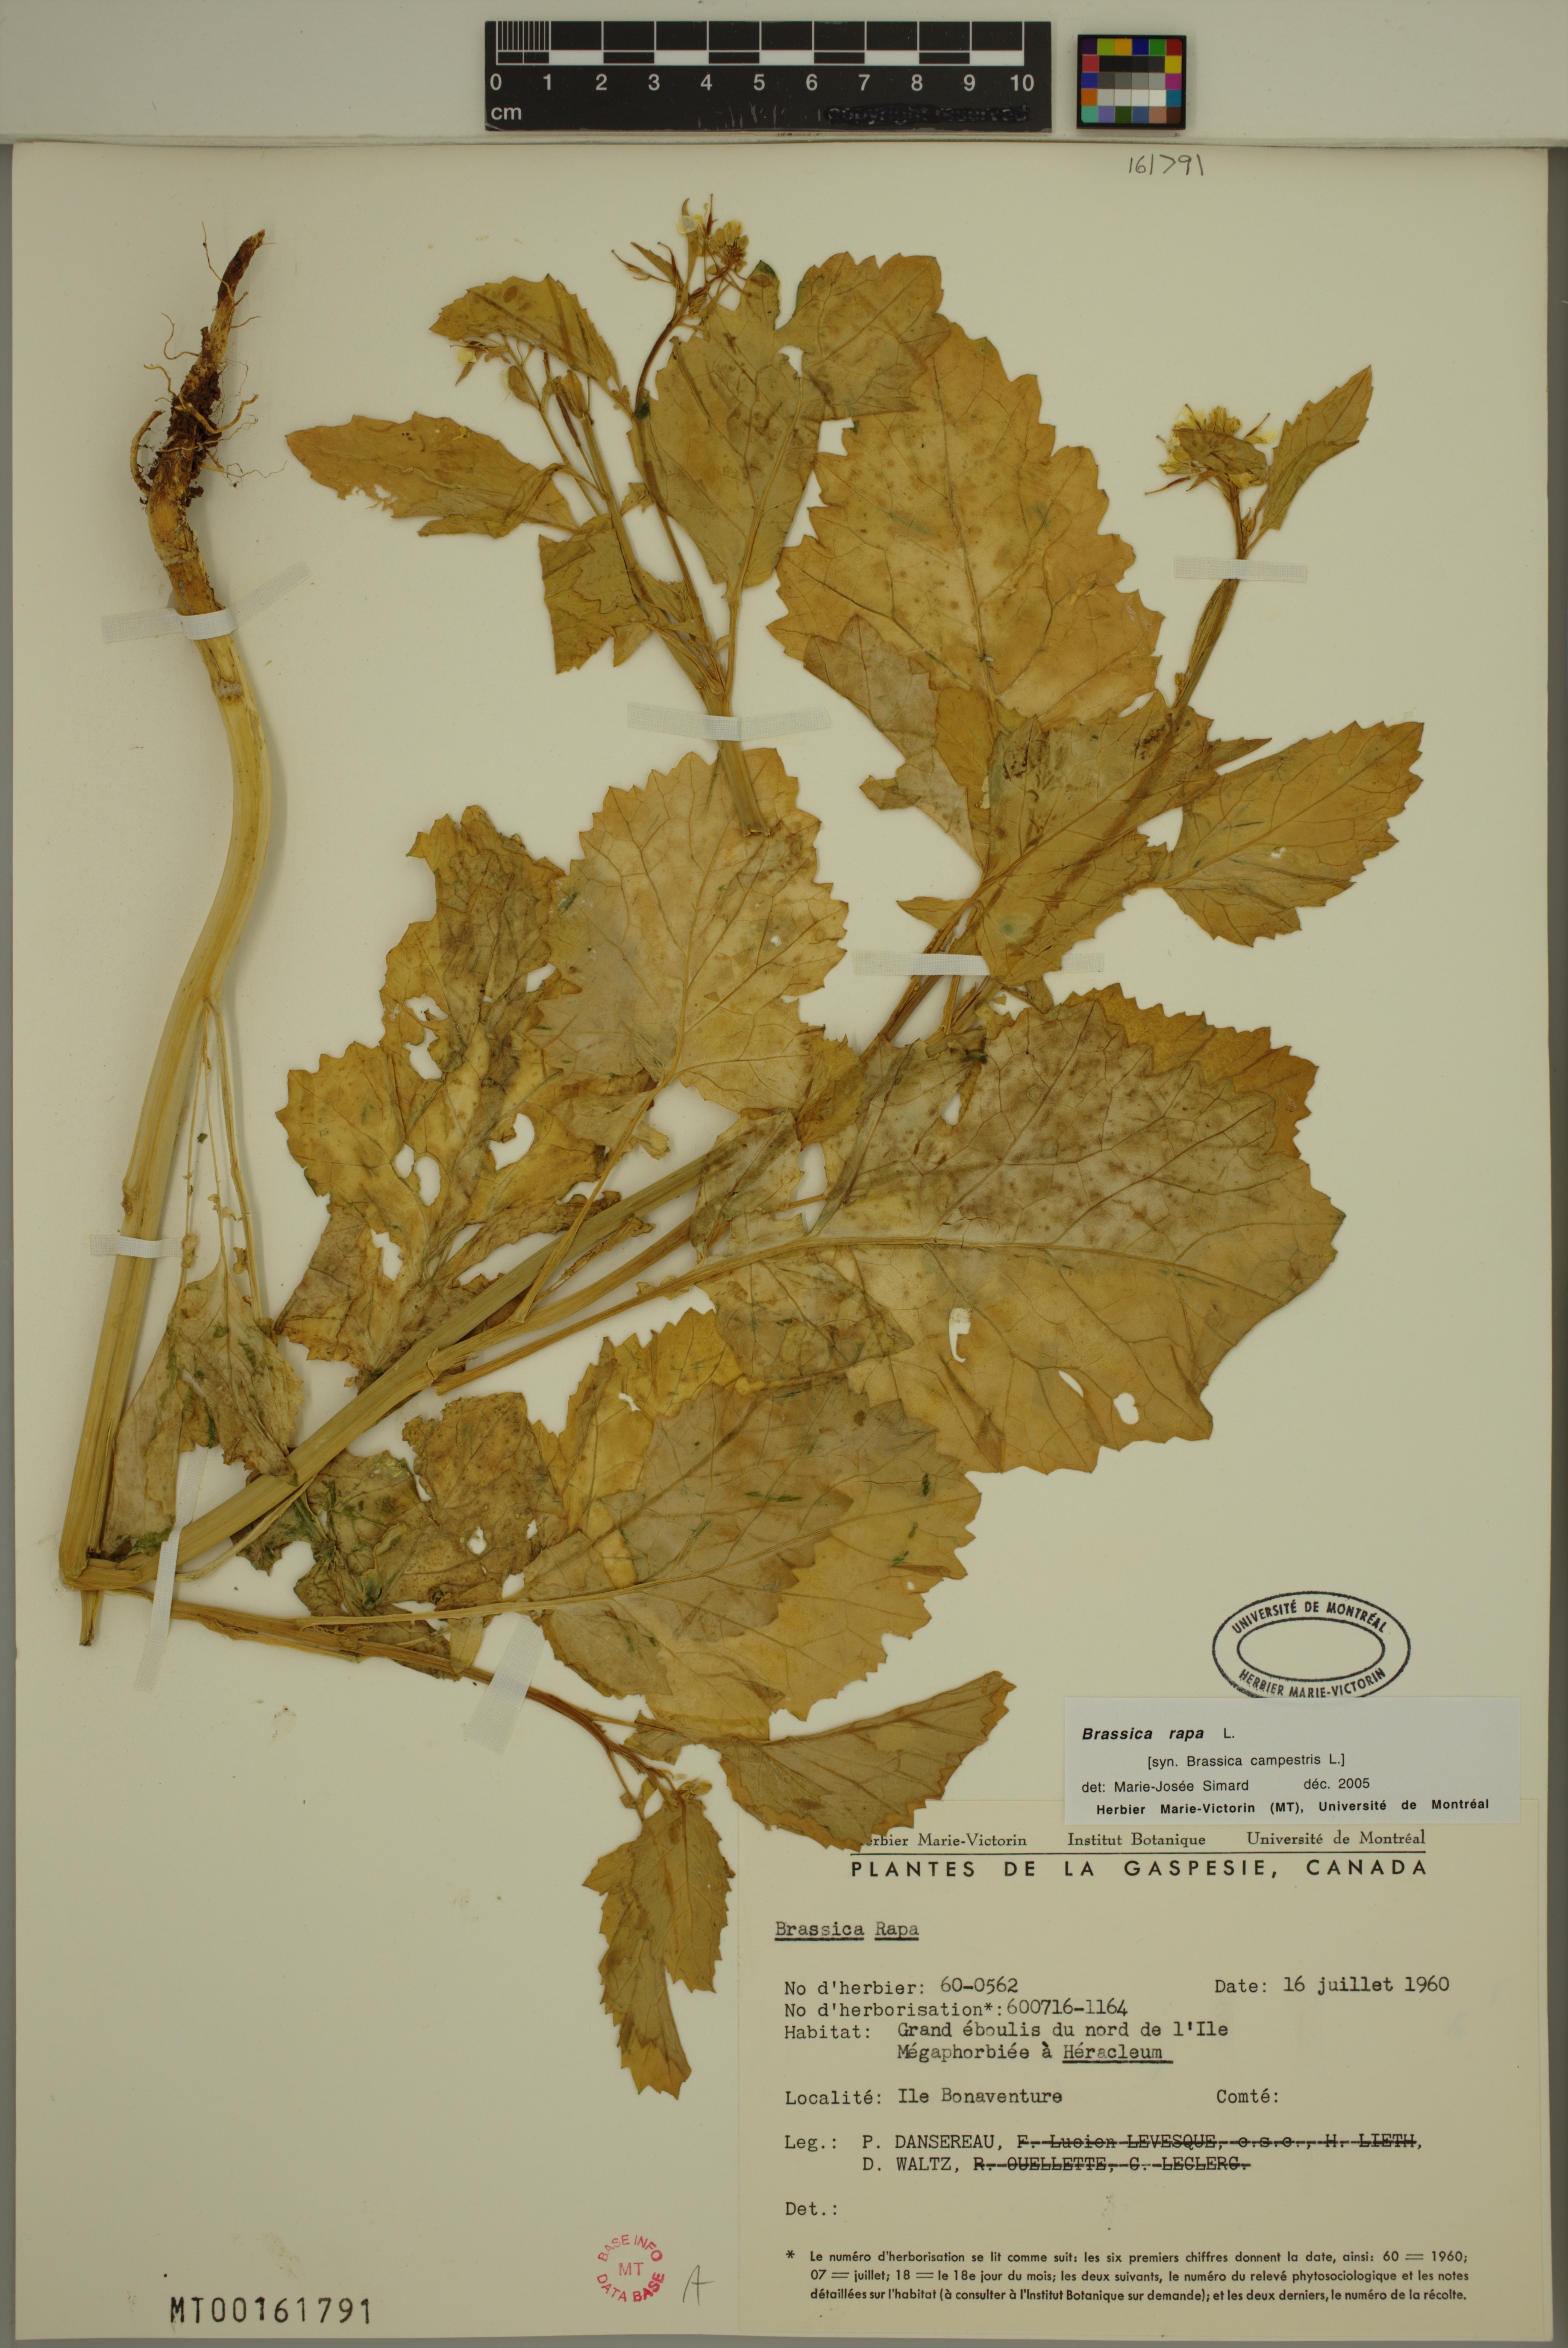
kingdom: Plantae
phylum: Tracheophyta
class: Magnoliopsida
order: Brassicales
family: Brassicaceae
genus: Brassica
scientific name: Brassica rapa
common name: Field mustard
